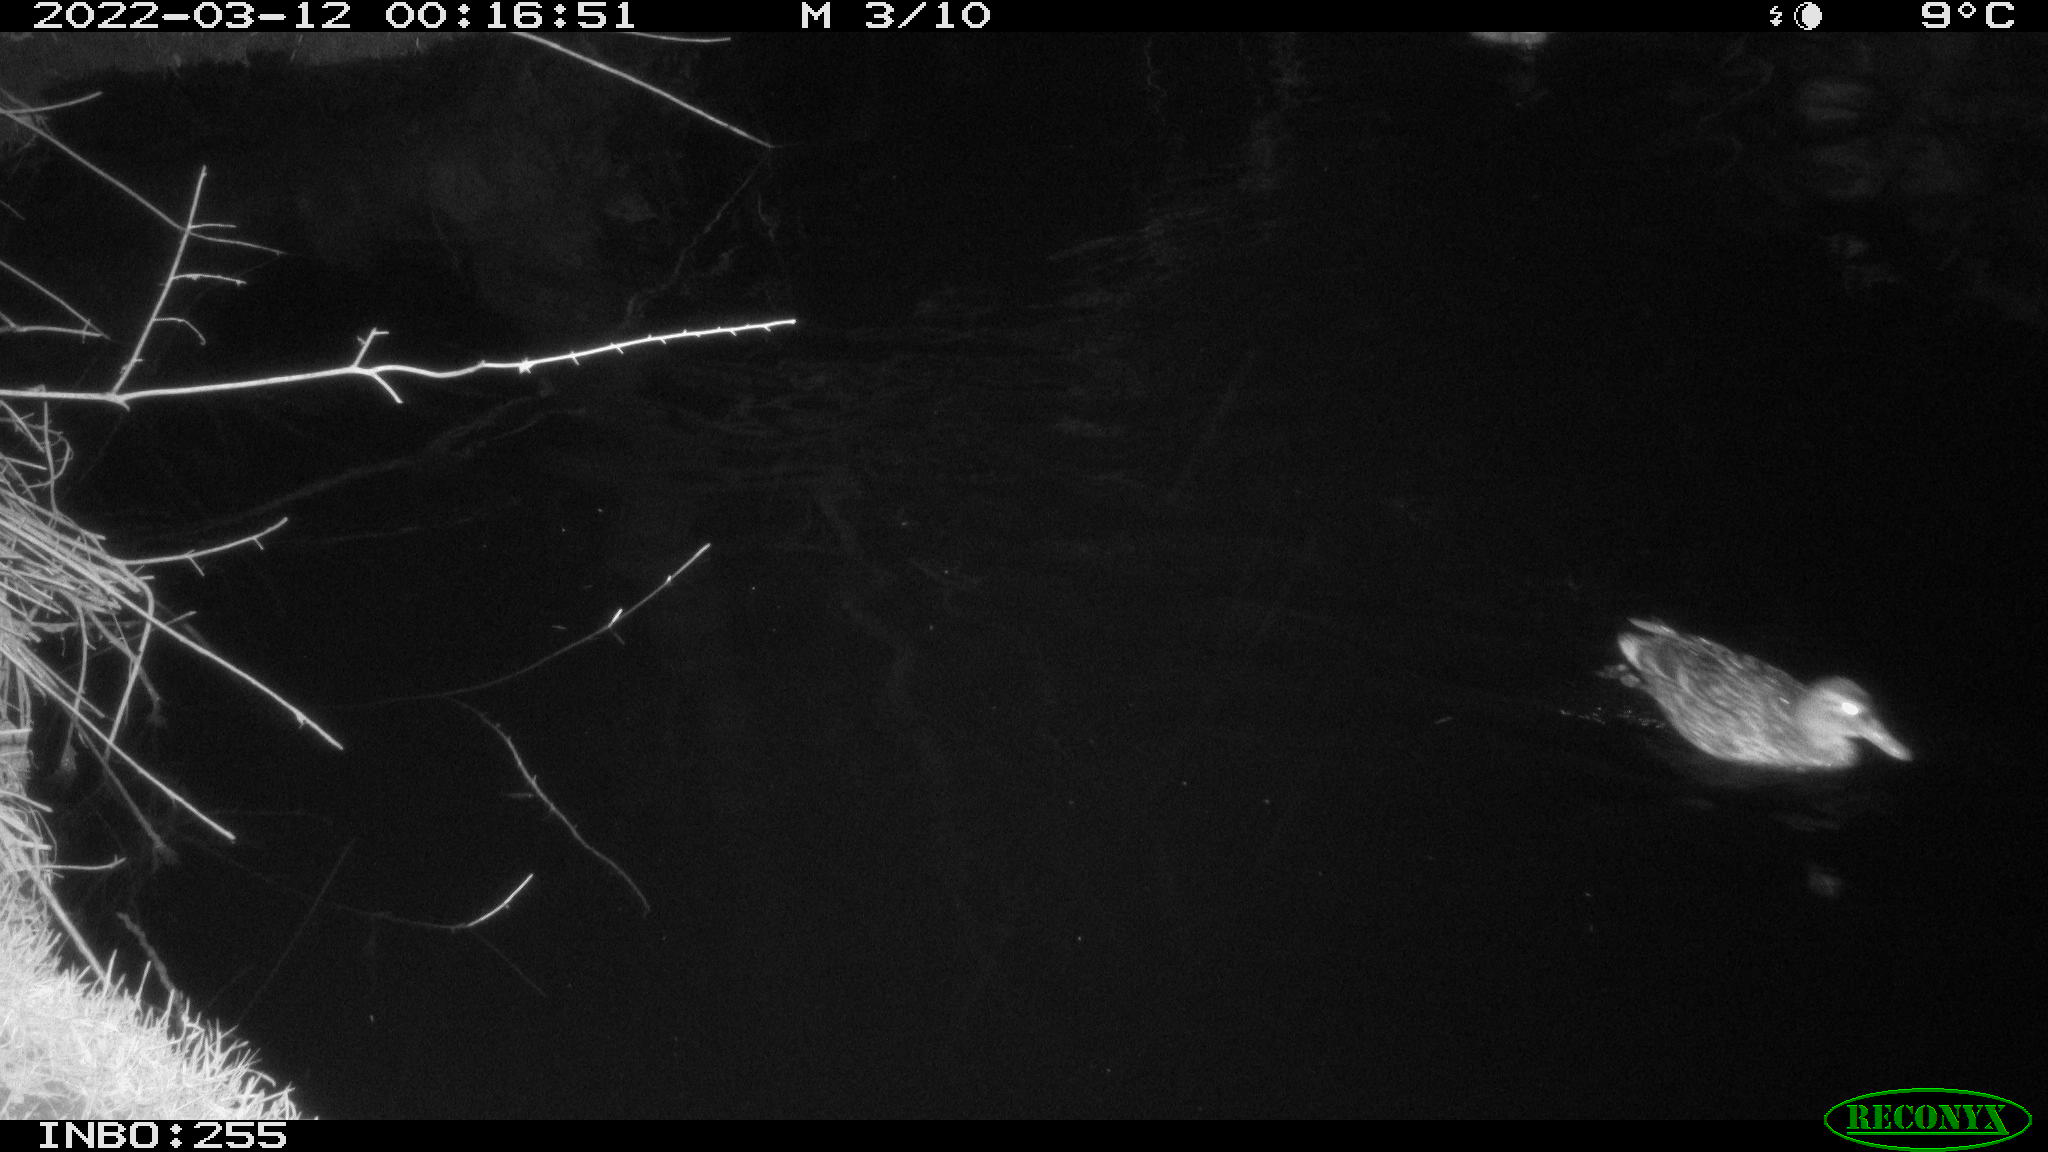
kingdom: Animalia
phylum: Chordata
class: Aves
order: Anseriformes
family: Anatidae
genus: Anas
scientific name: Anas platyrhynchos
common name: Mallard
